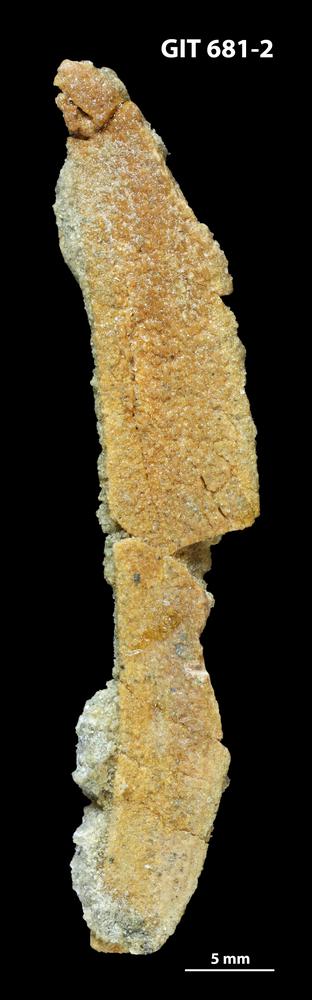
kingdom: Animalia
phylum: Chordata
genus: Hybosteus
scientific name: Hybosteus
